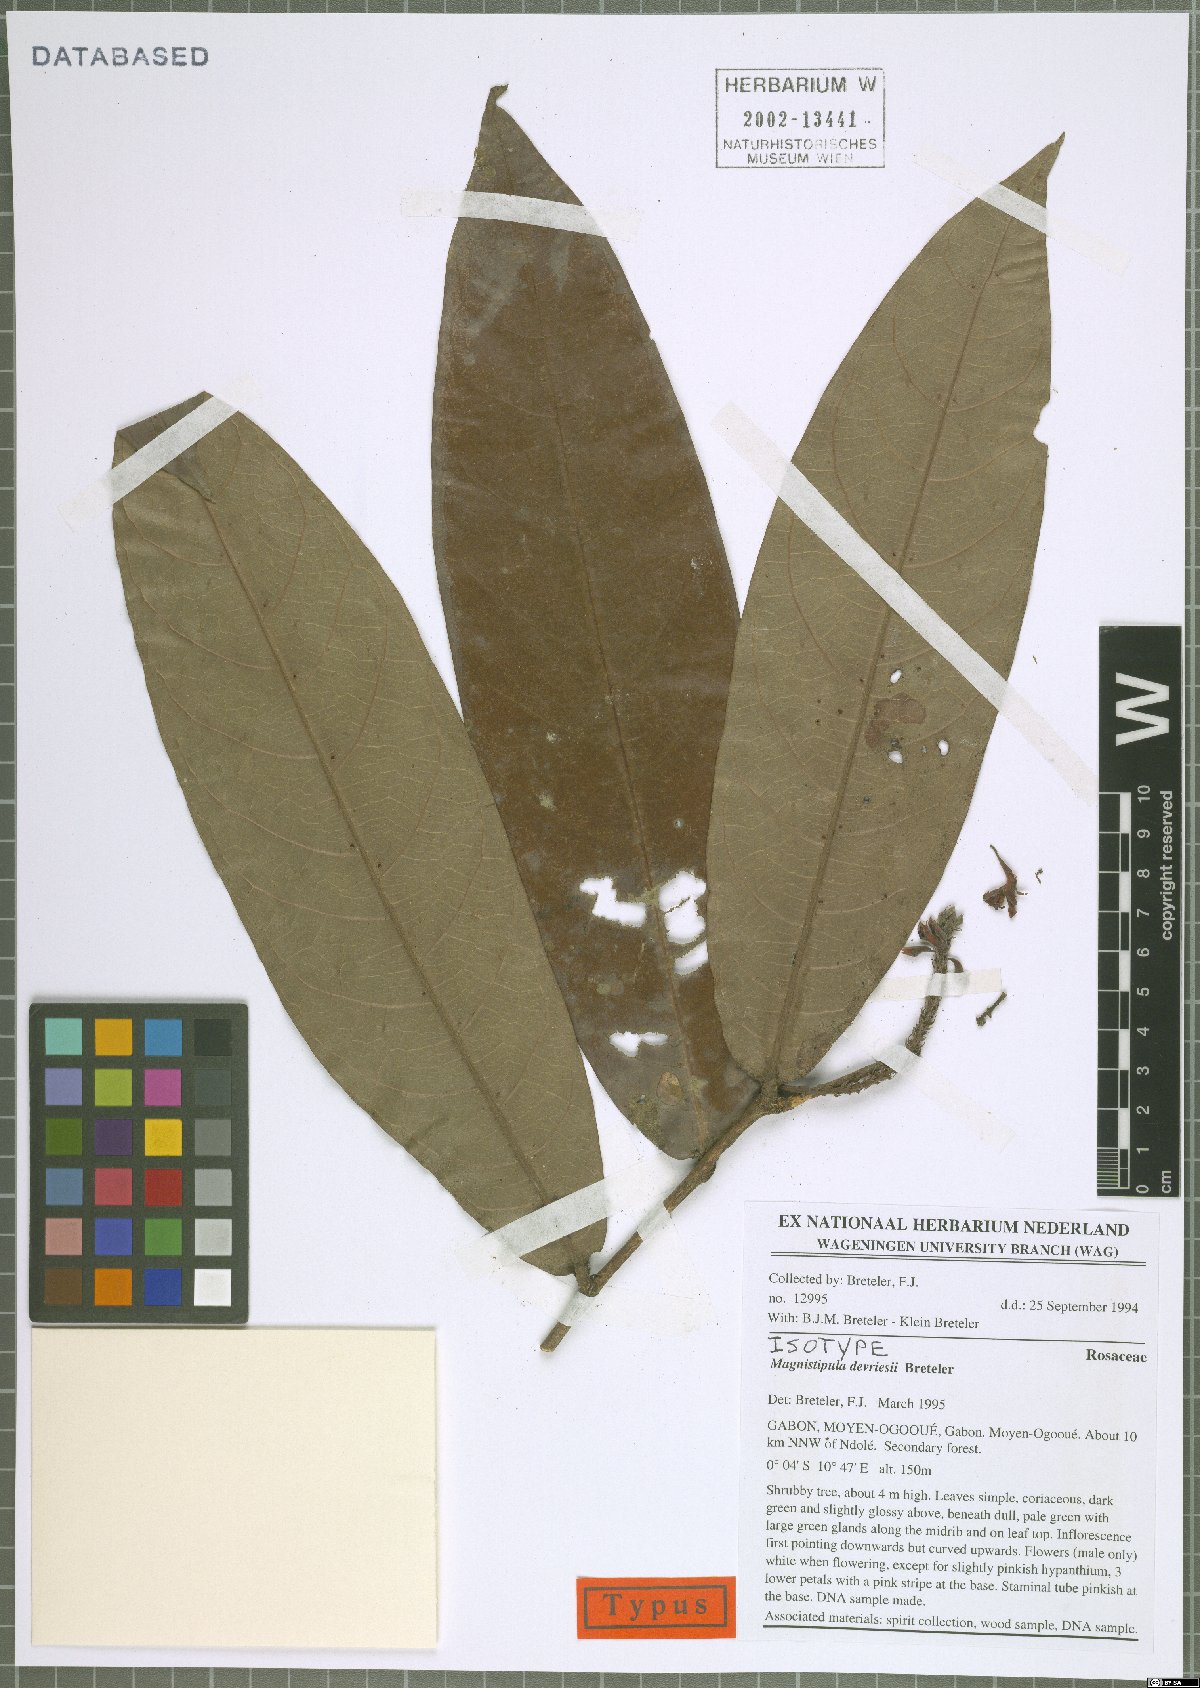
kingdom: Plantae
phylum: Tracheophyta
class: Magnoliopsida
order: Malpighiales
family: Chrysobalanaceae
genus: Magnistipula
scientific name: Magnistipula devriesii
